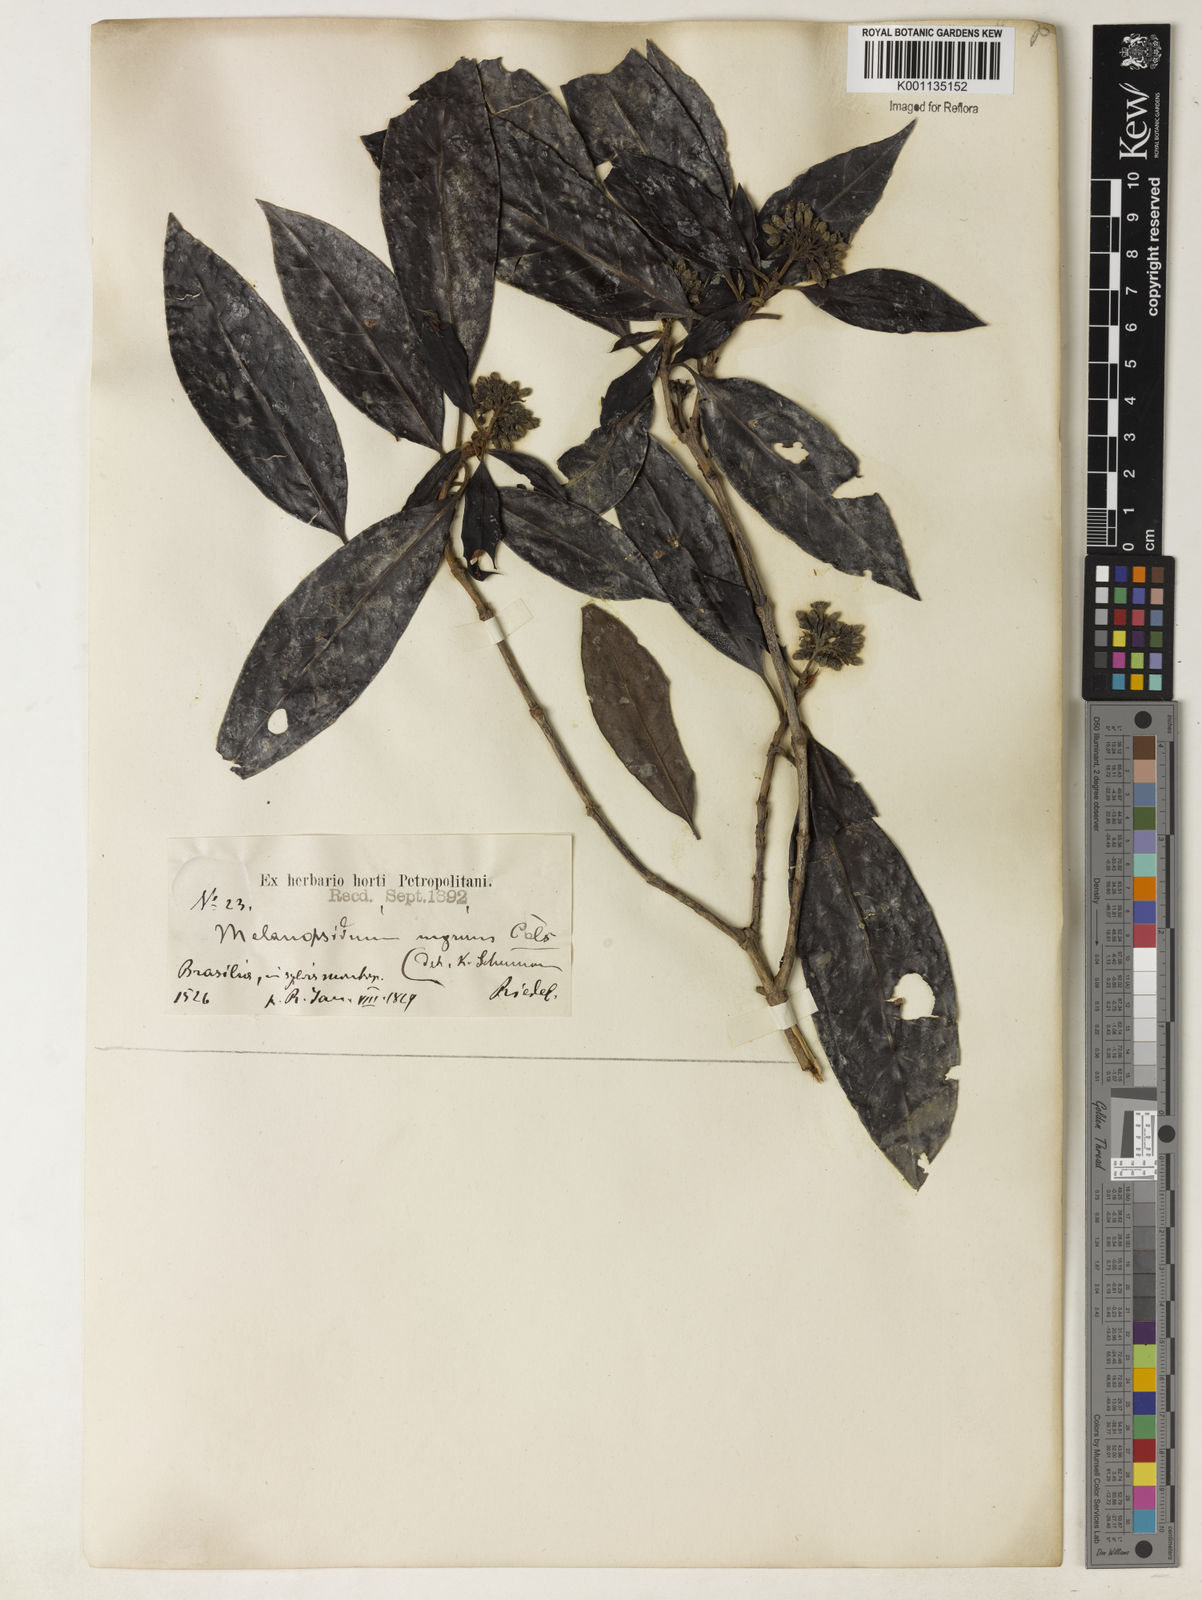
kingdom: Plantae
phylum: Tracheophyta
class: Magnoliopsida
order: Gentianales
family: Rubiaceae
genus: Melanopsidium
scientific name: Melanopsidium nigrum
